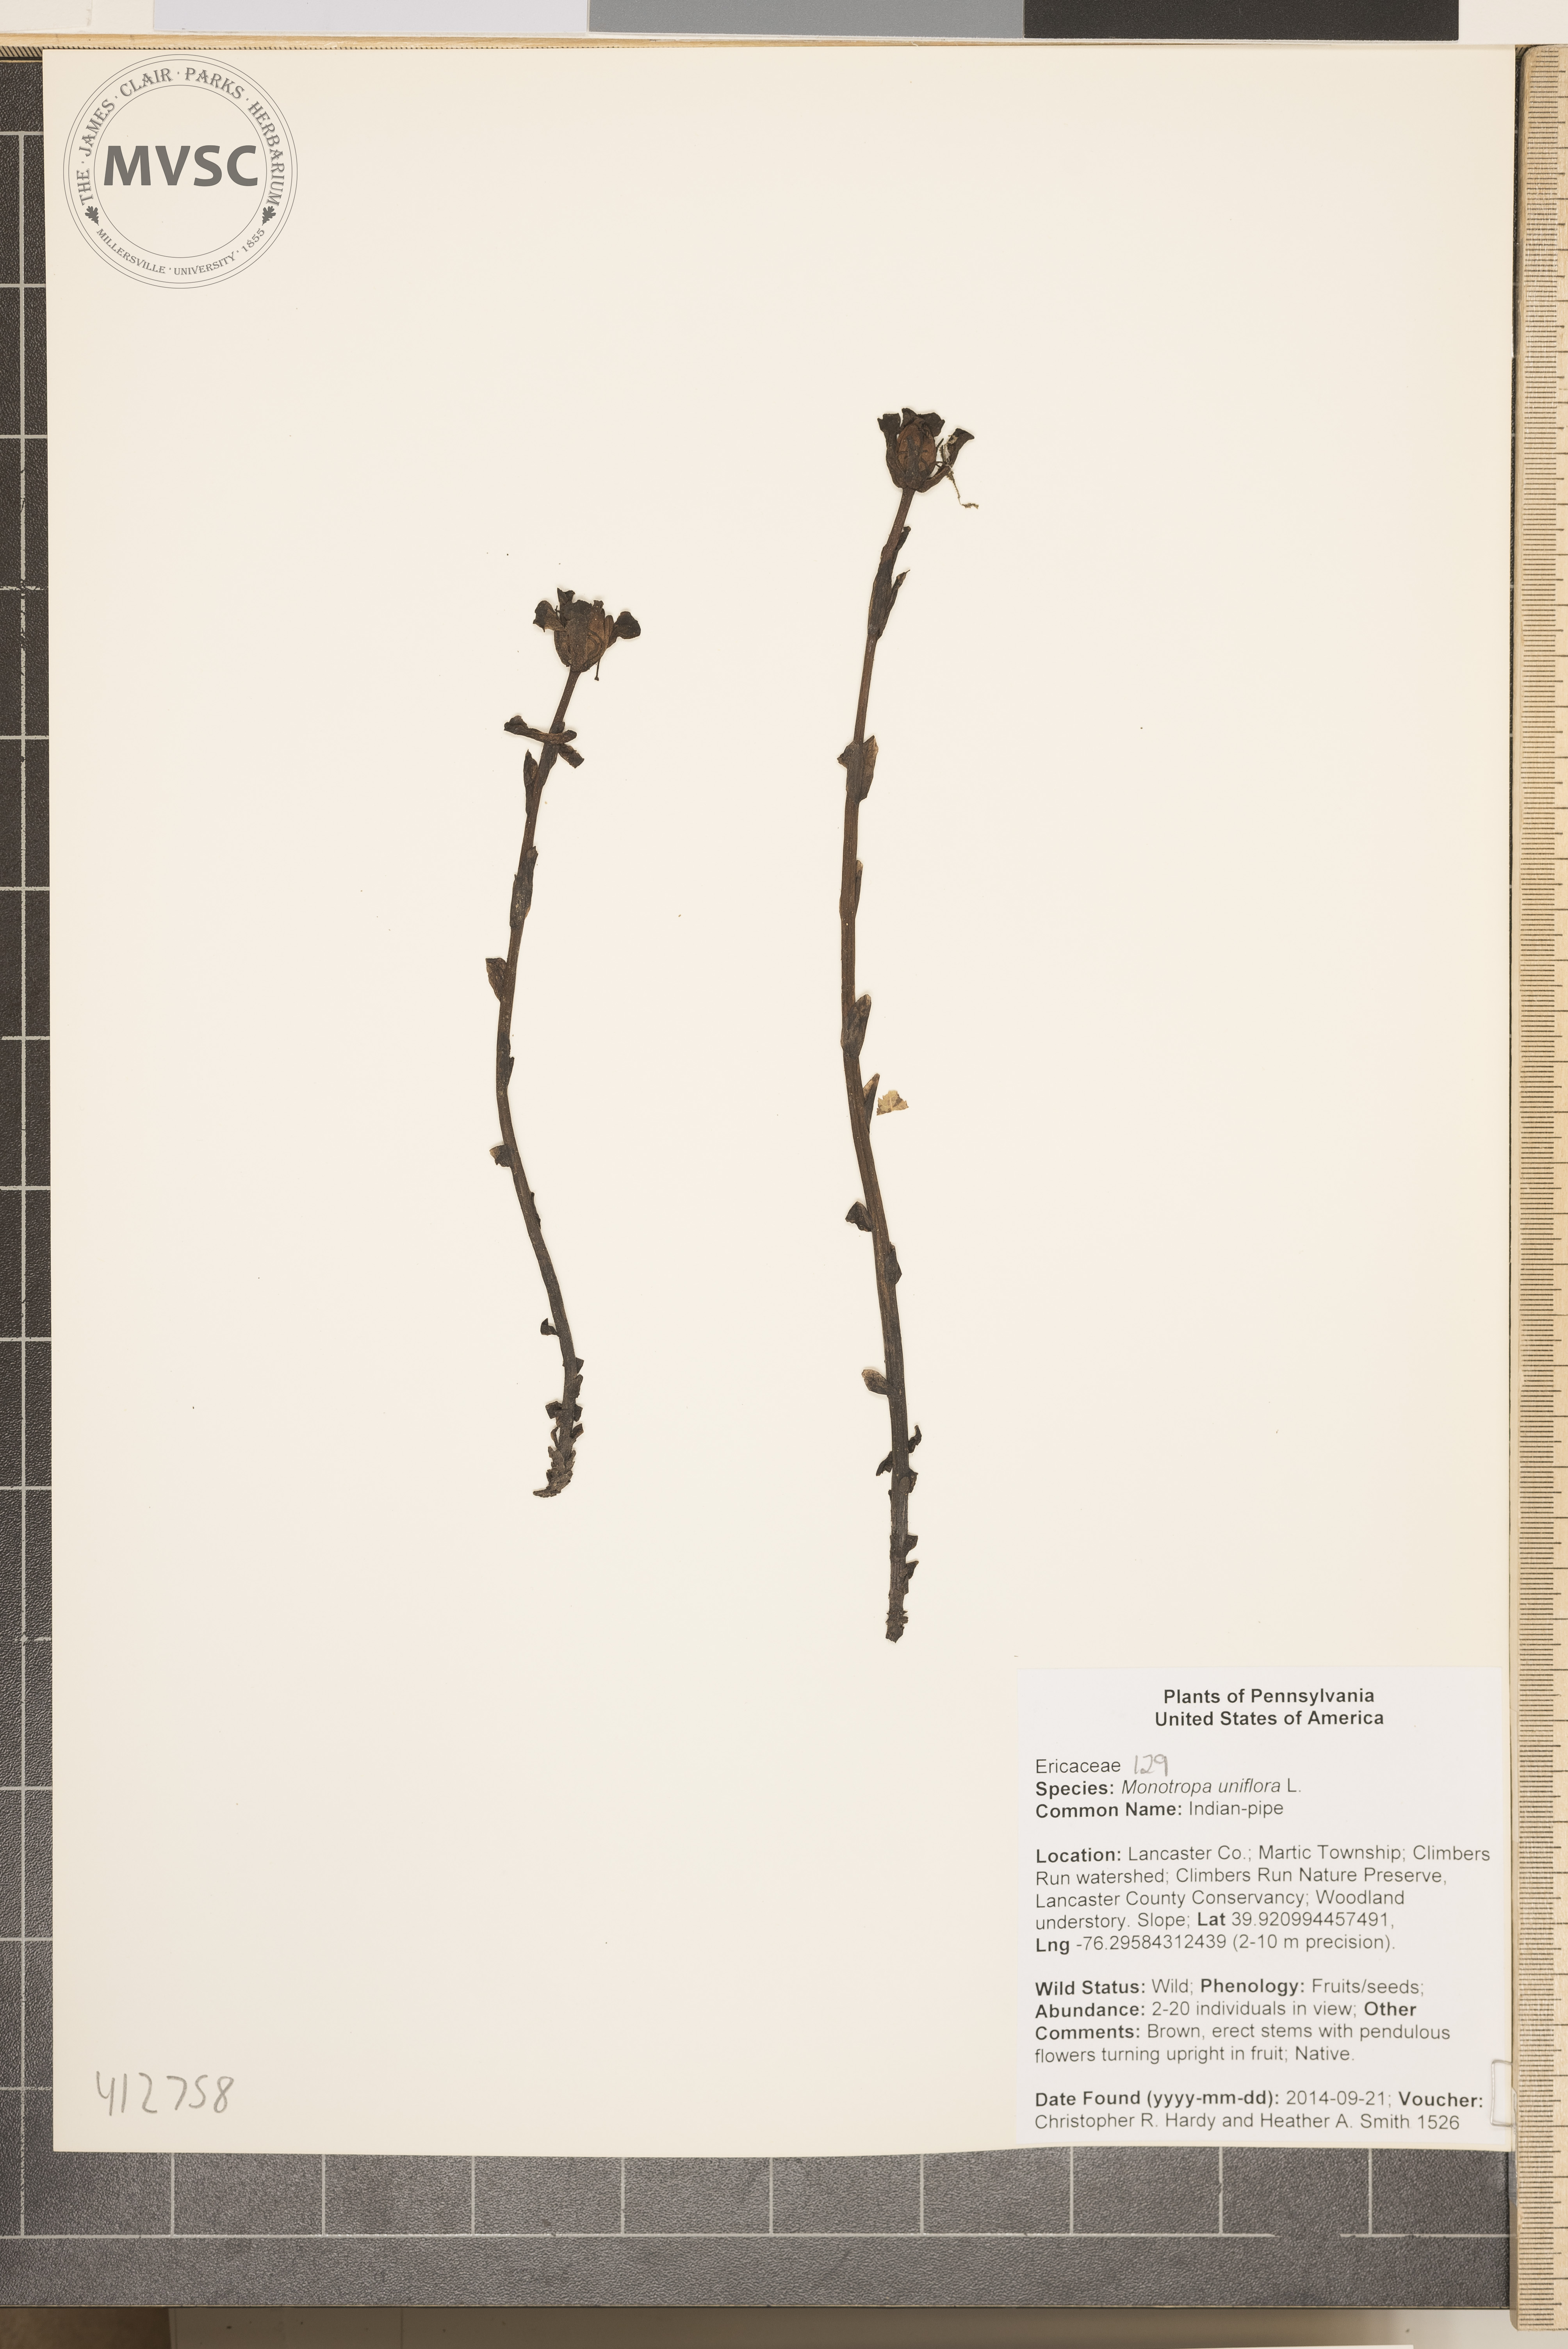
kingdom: Plantae
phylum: Tracheophyta
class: Magnoliopsida
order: Ericales
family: Ericaceae
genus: Monotropa
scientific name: Monotropa uniflora
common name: Indian-pipe
